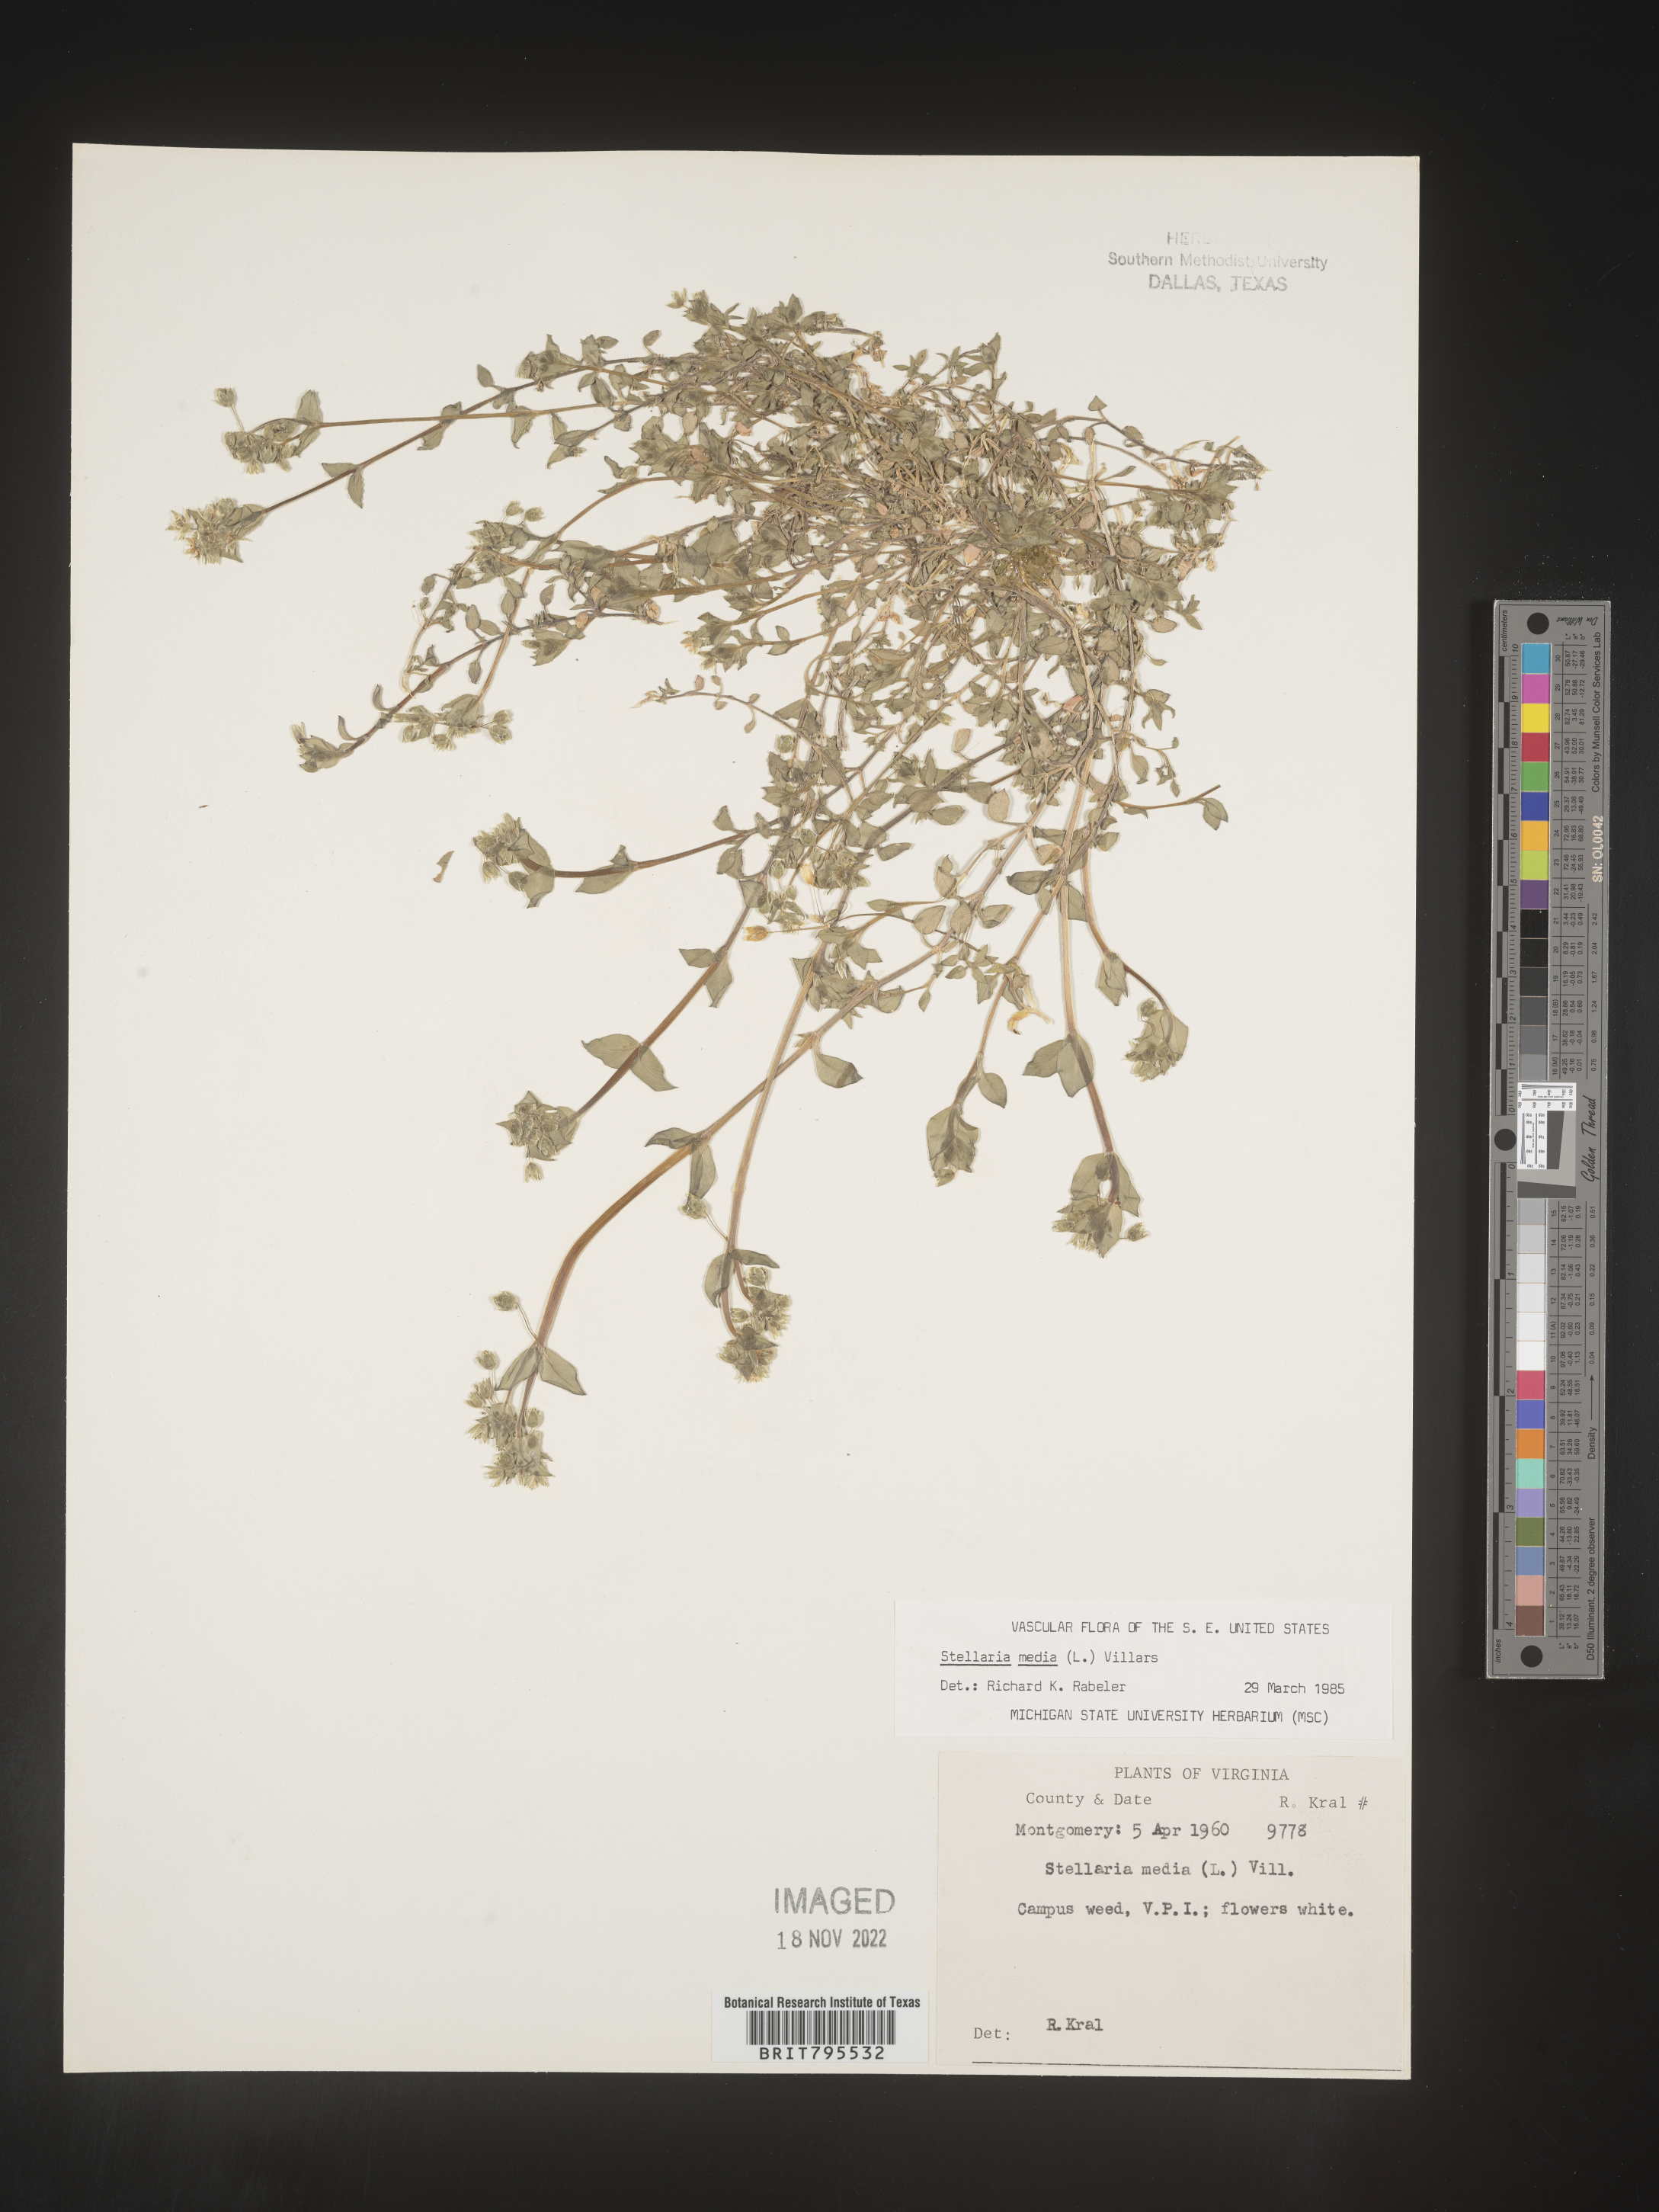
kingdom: Plantae
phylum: Tracheophyta
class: Magnoliopsida
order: Caryophyllales
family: Caryophyllaceae
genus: Stellaria
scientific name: Stellaria media
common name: Common chickweed
